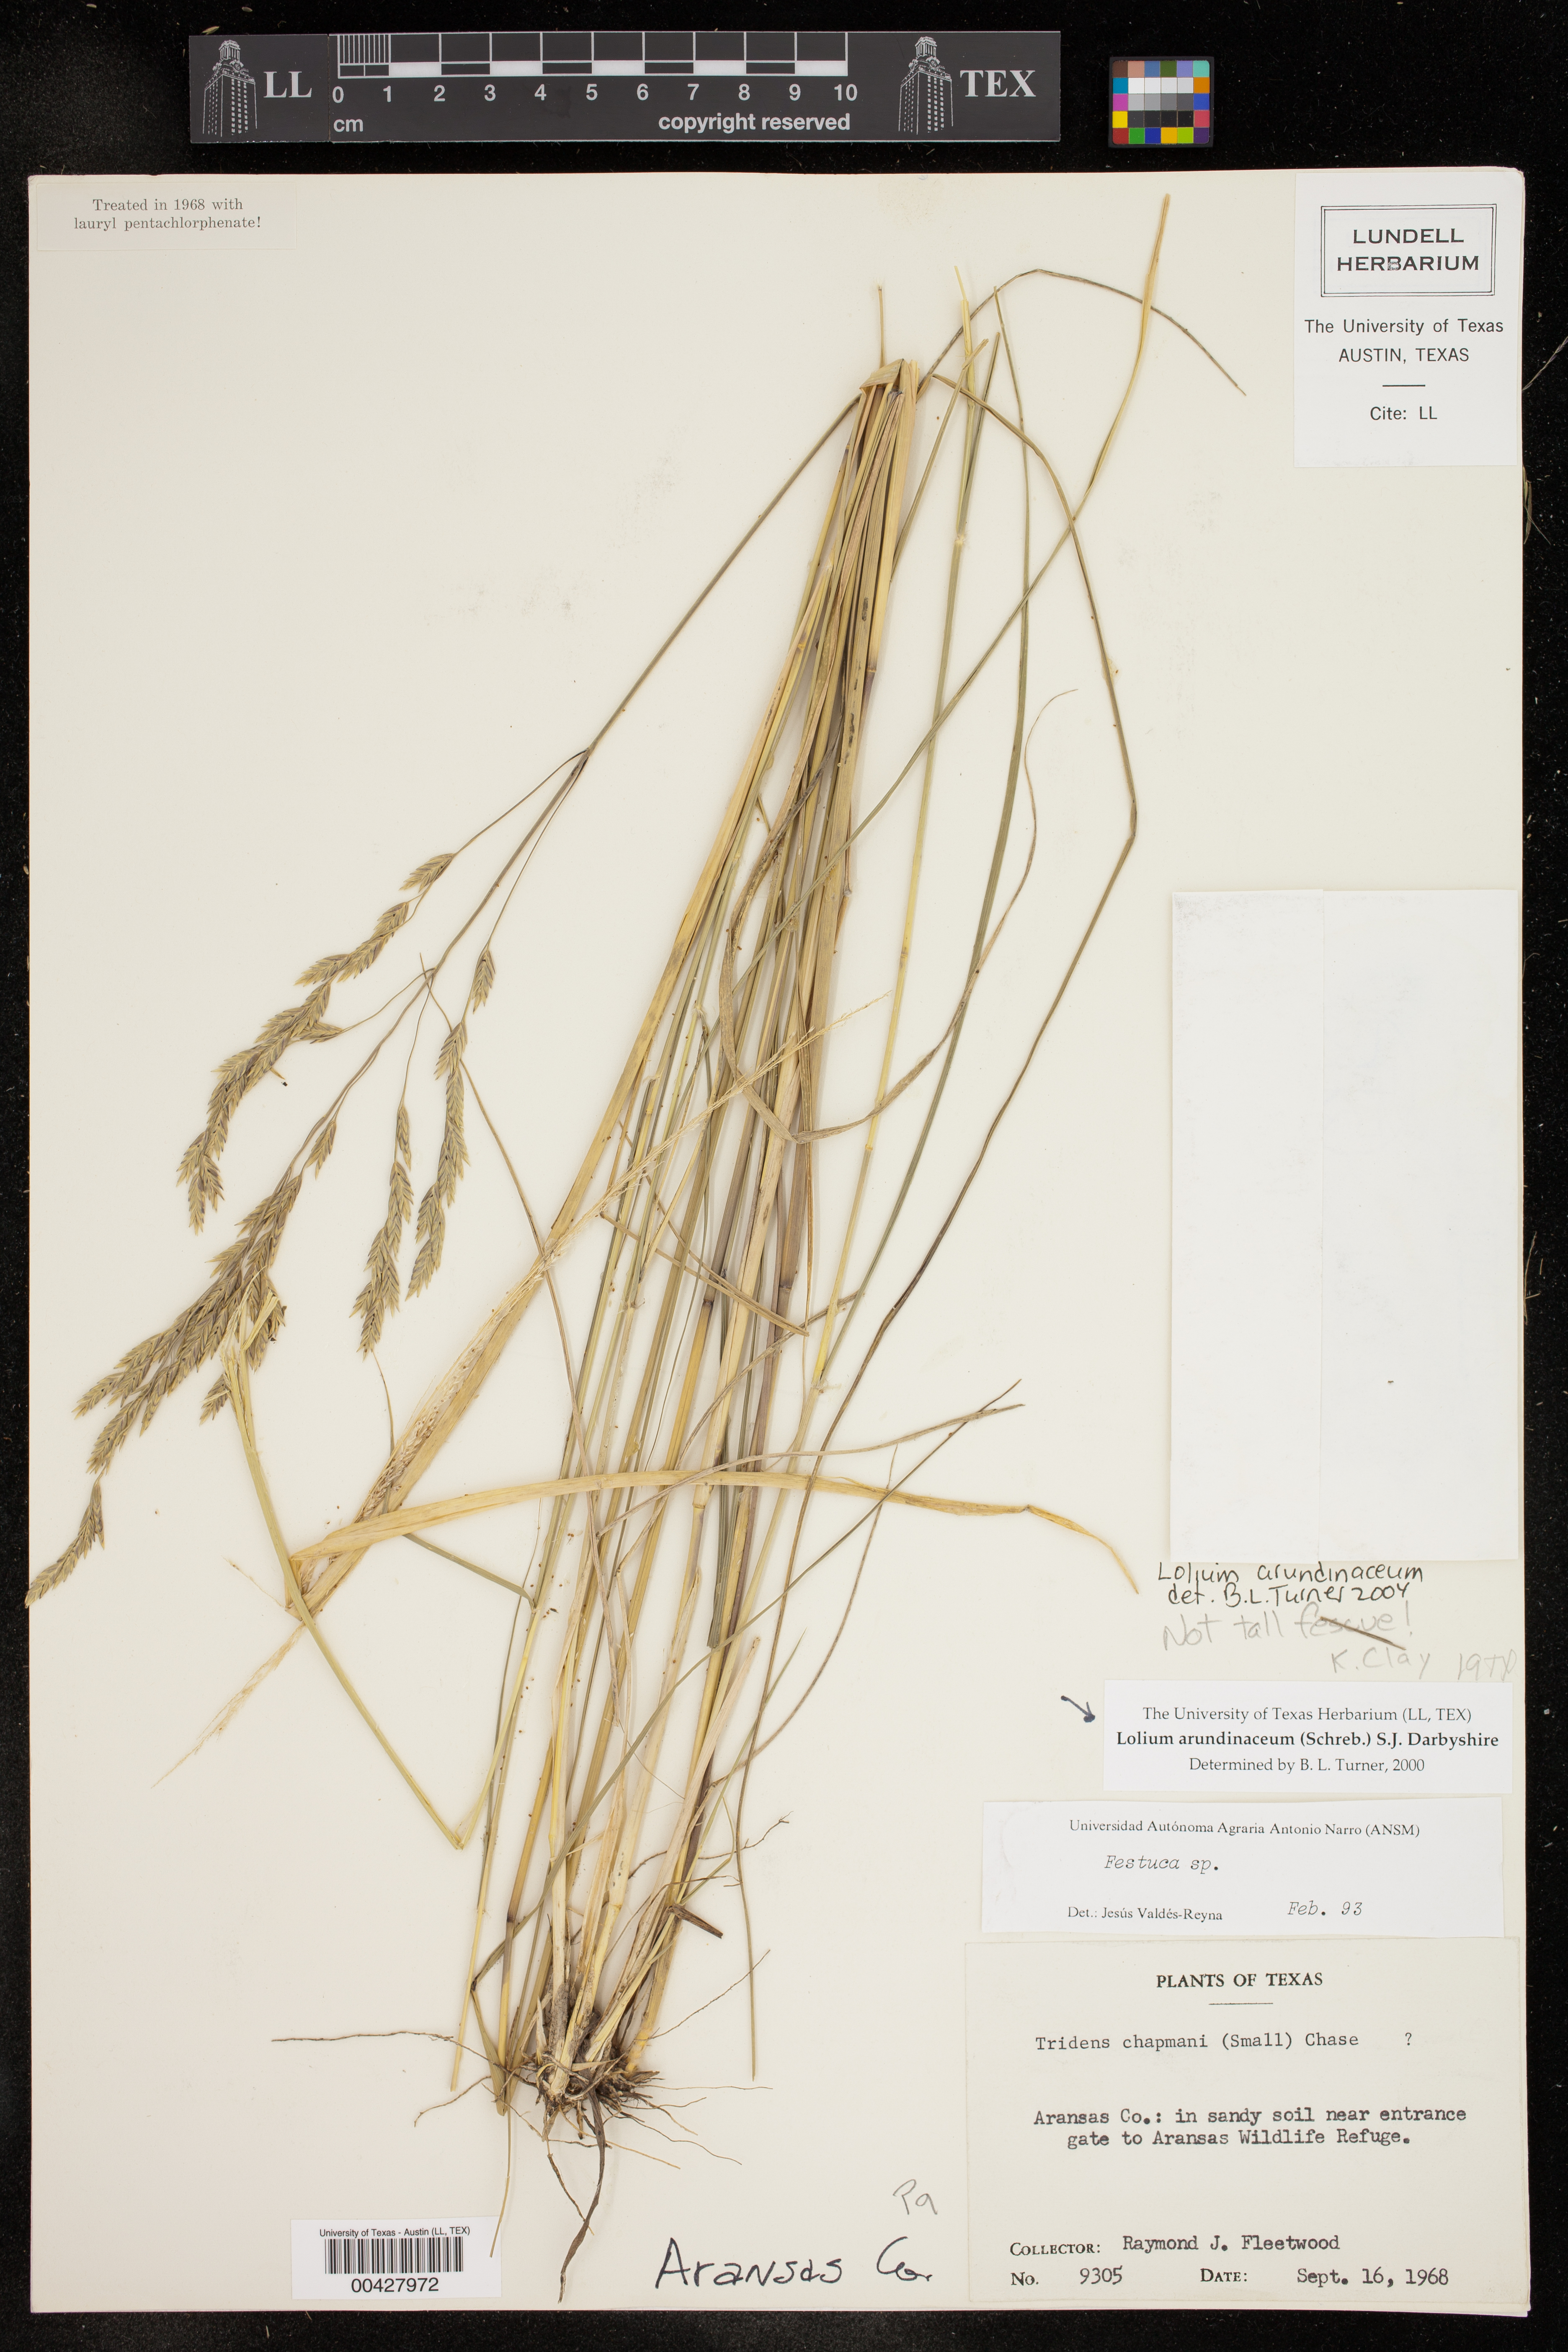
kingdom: Plantae
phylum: Tracheophyta
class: Liliopsida
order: Poales
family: Poaceae
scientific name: Poaceae
